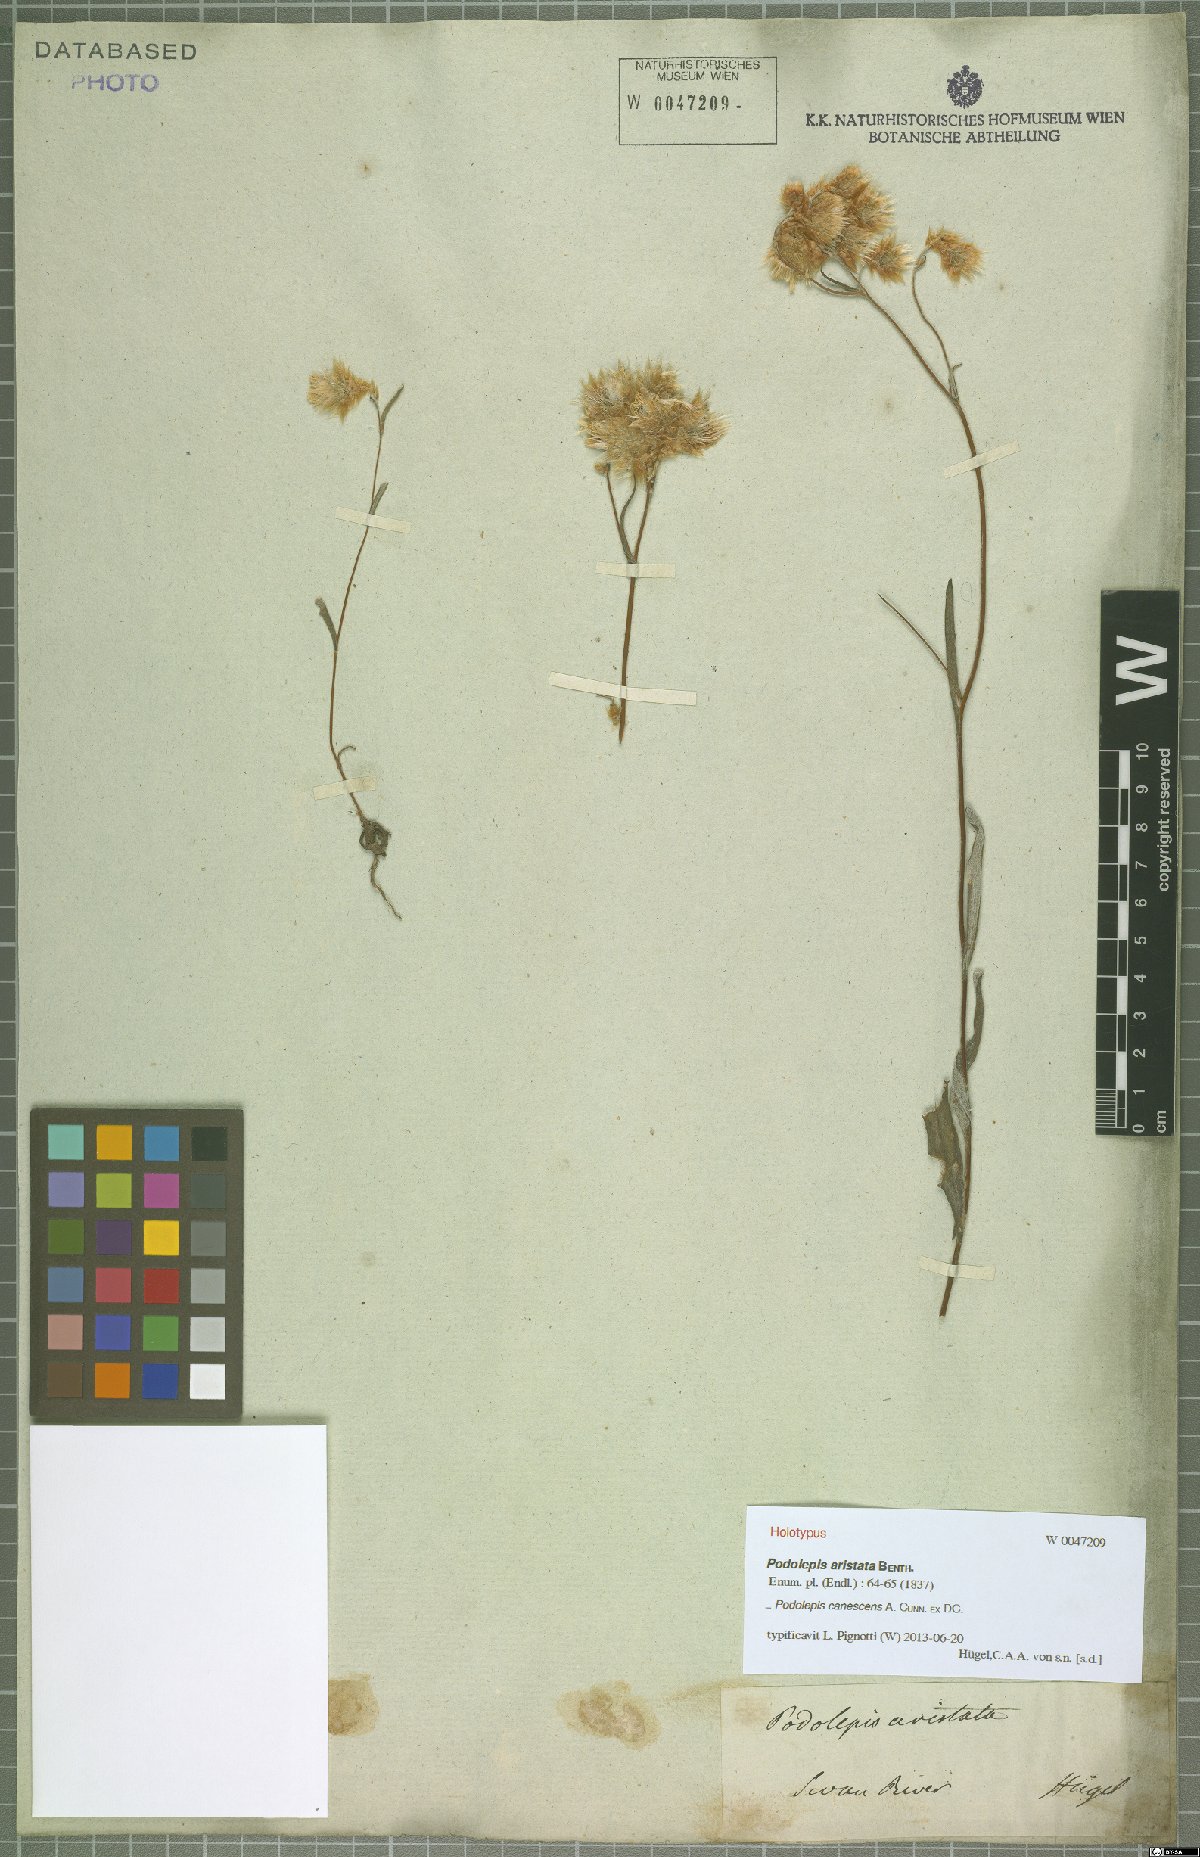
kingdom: Plantae
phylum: Tracheophyta
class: Magnoliopsida
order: Asterales
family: Asteraceae
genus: Podolepis
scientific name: Podolepis canescens
